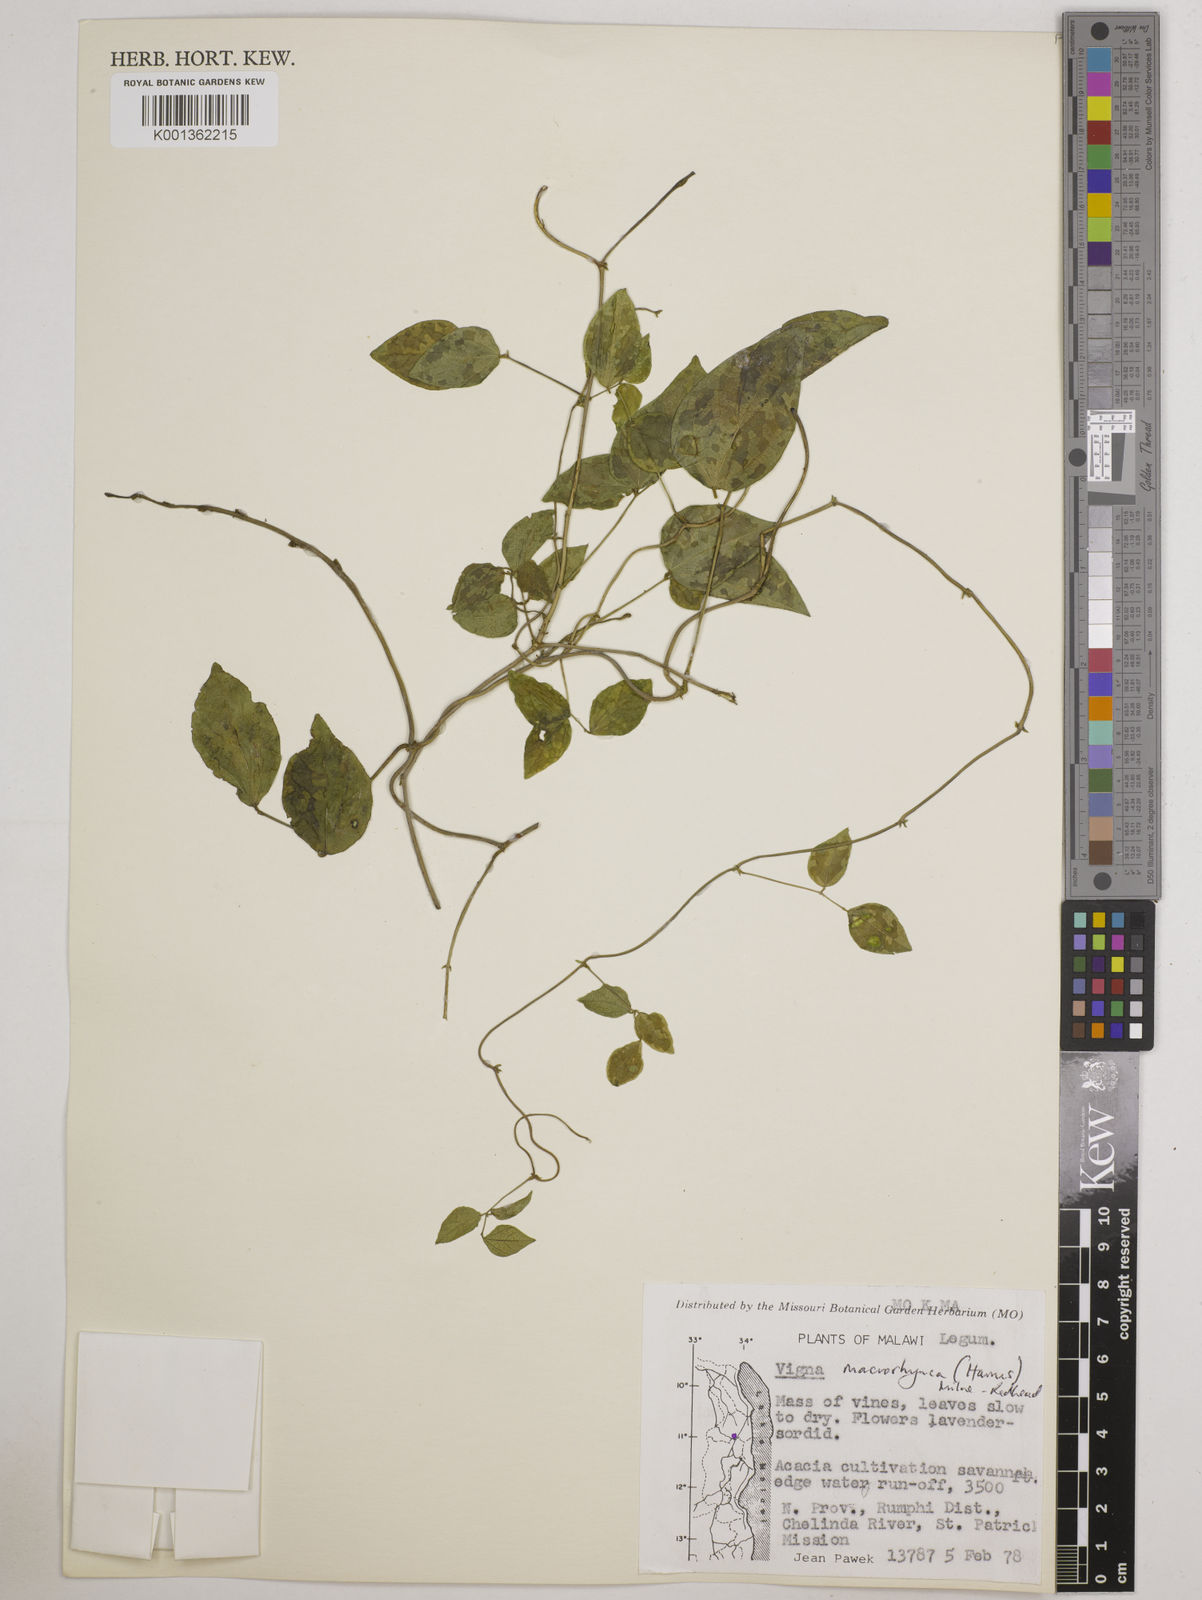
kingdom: Plantae
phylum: Tracheophyta
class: Magnoliopsida
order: Fabales
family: Fabaceae
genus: Wajira
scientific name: Wajira grahamiana
